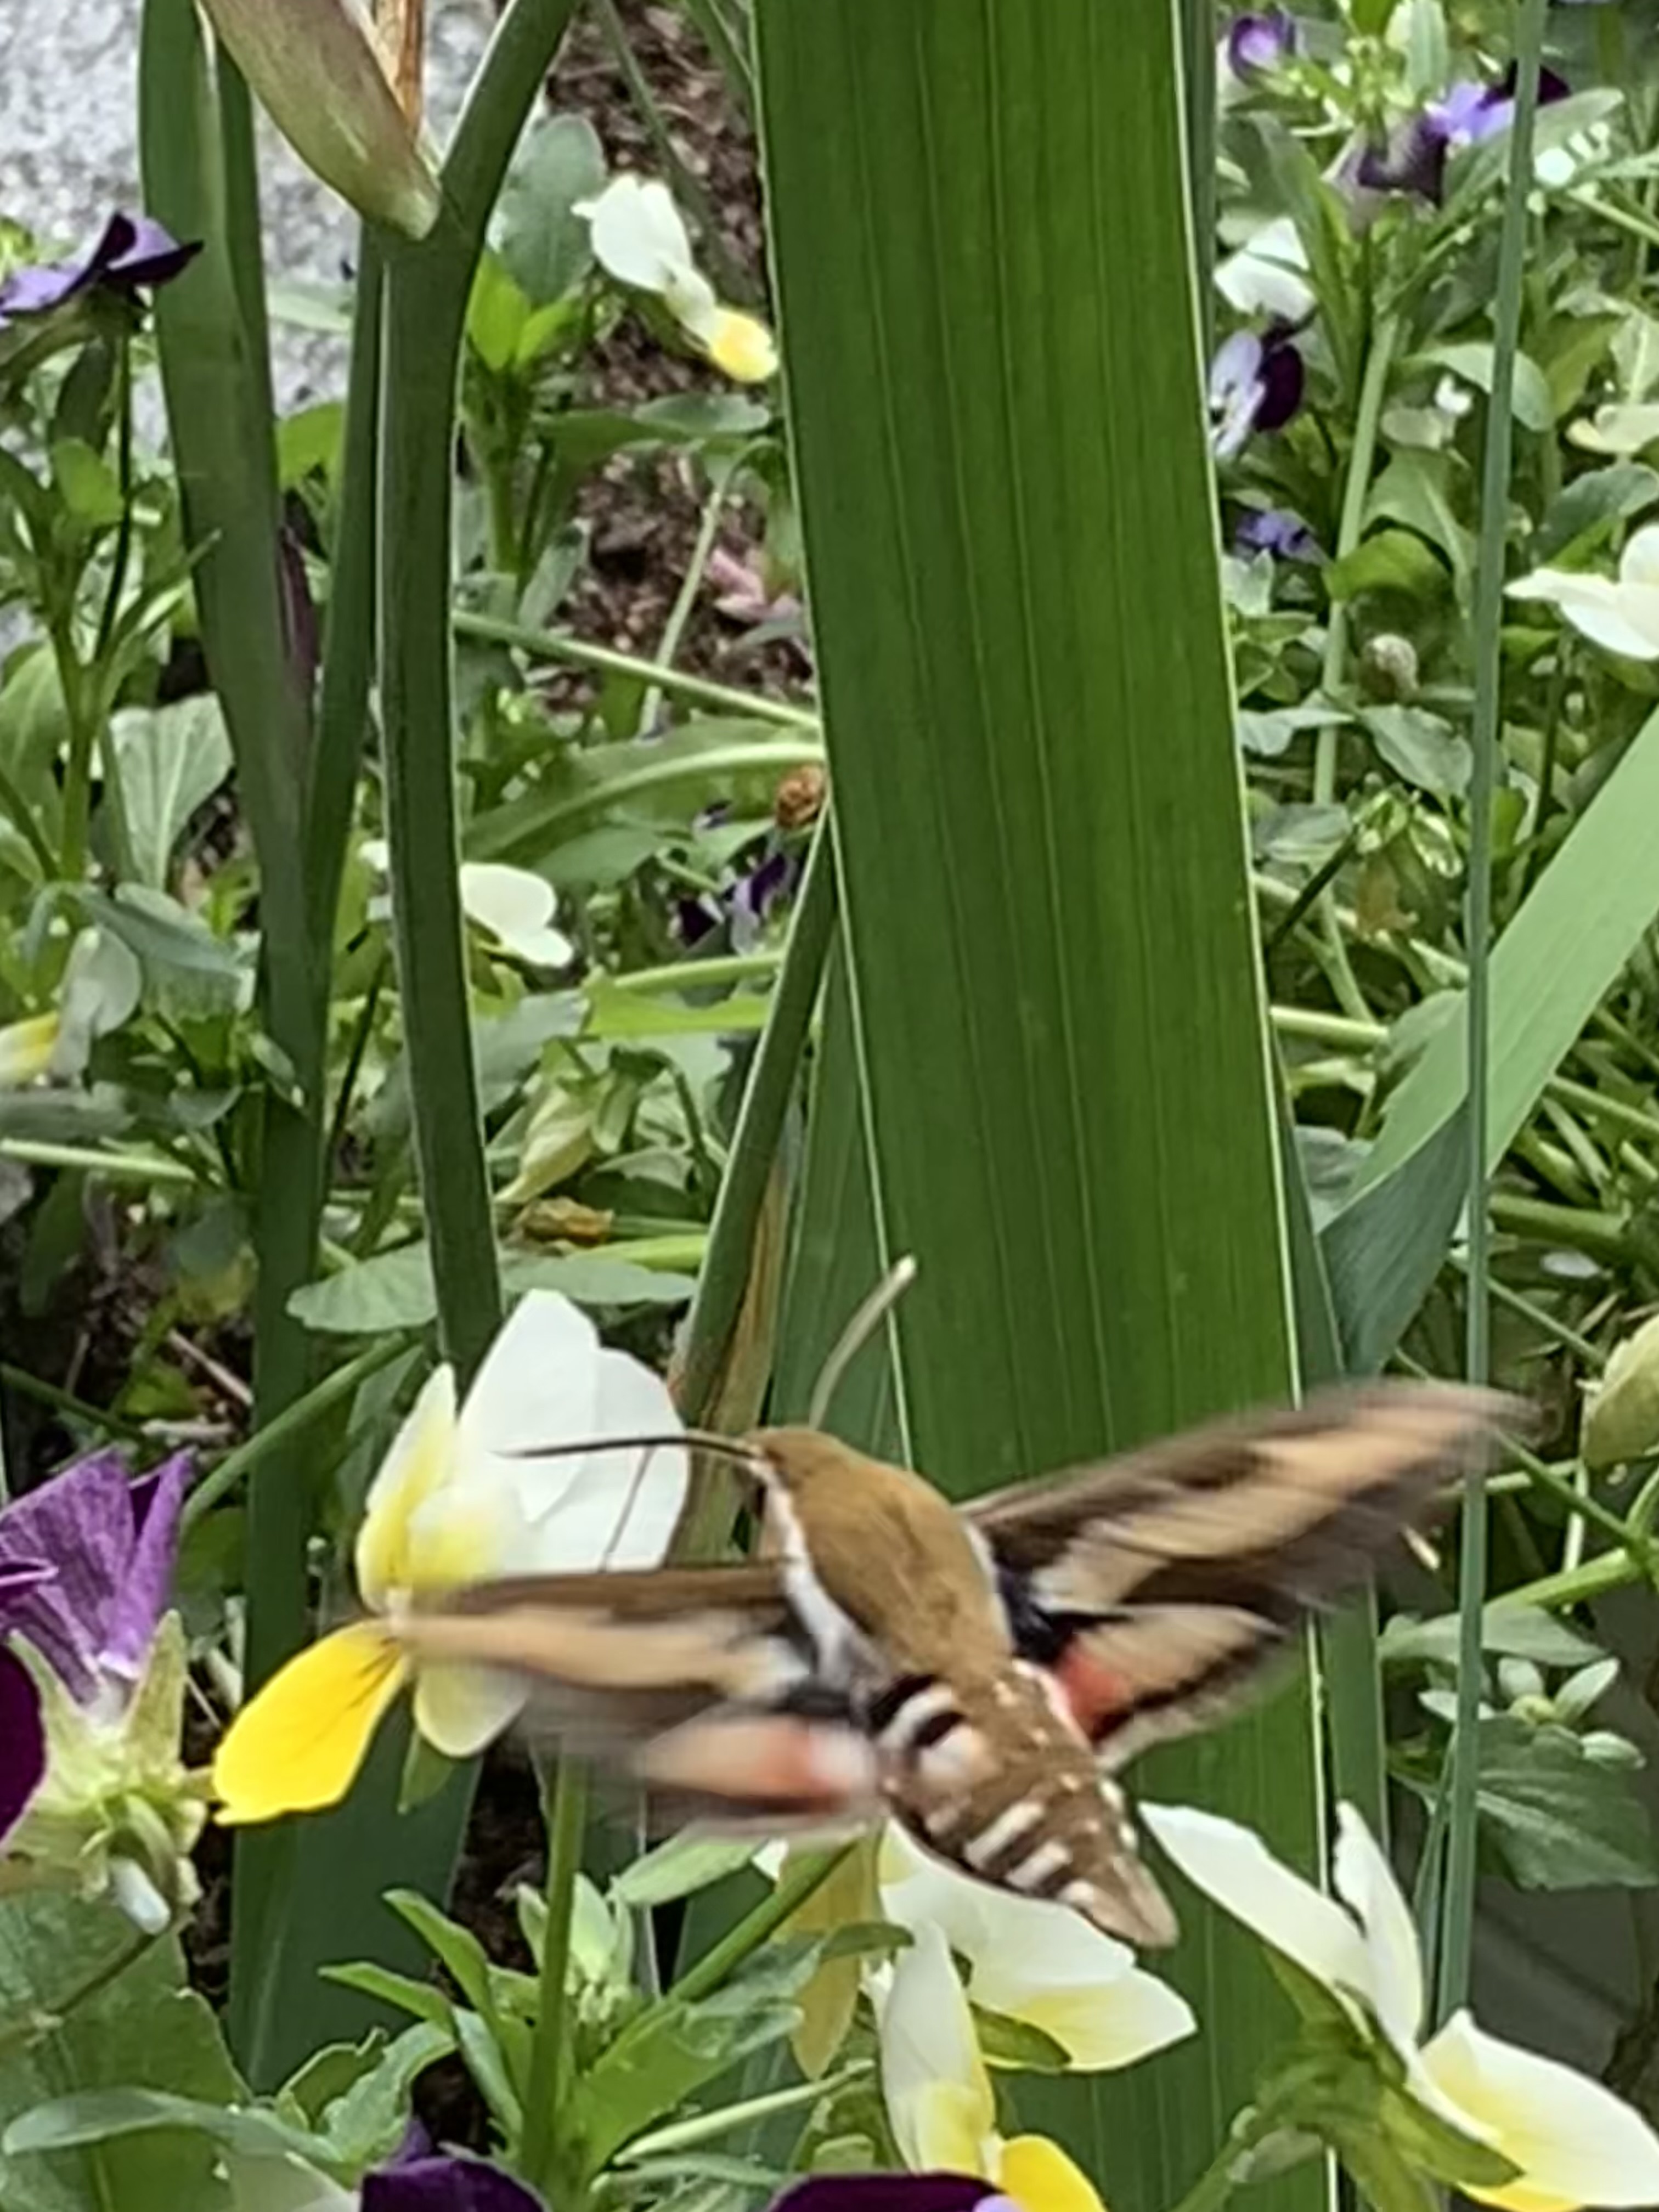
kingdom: Animalia
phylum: Arthropoda
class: Insecta
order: Lepidoptera
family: Sphingidae
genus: Hyles
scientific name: Hyles gallii
